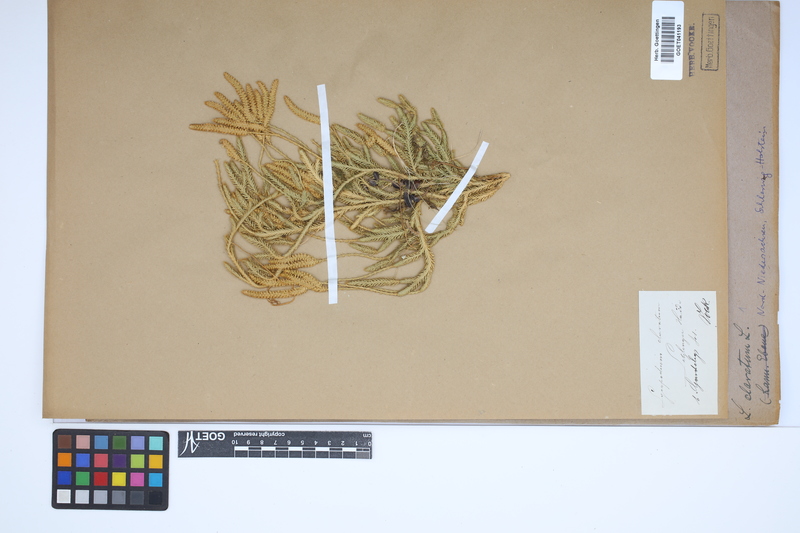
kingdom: Plantae
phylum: Tracheophyta
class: Lycopodiopsida
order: Lycopodiales
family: Lycopodiaceae
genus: Lycopodium
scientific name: Lycopodium clavatum
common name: Stag's-horn clubmoss
